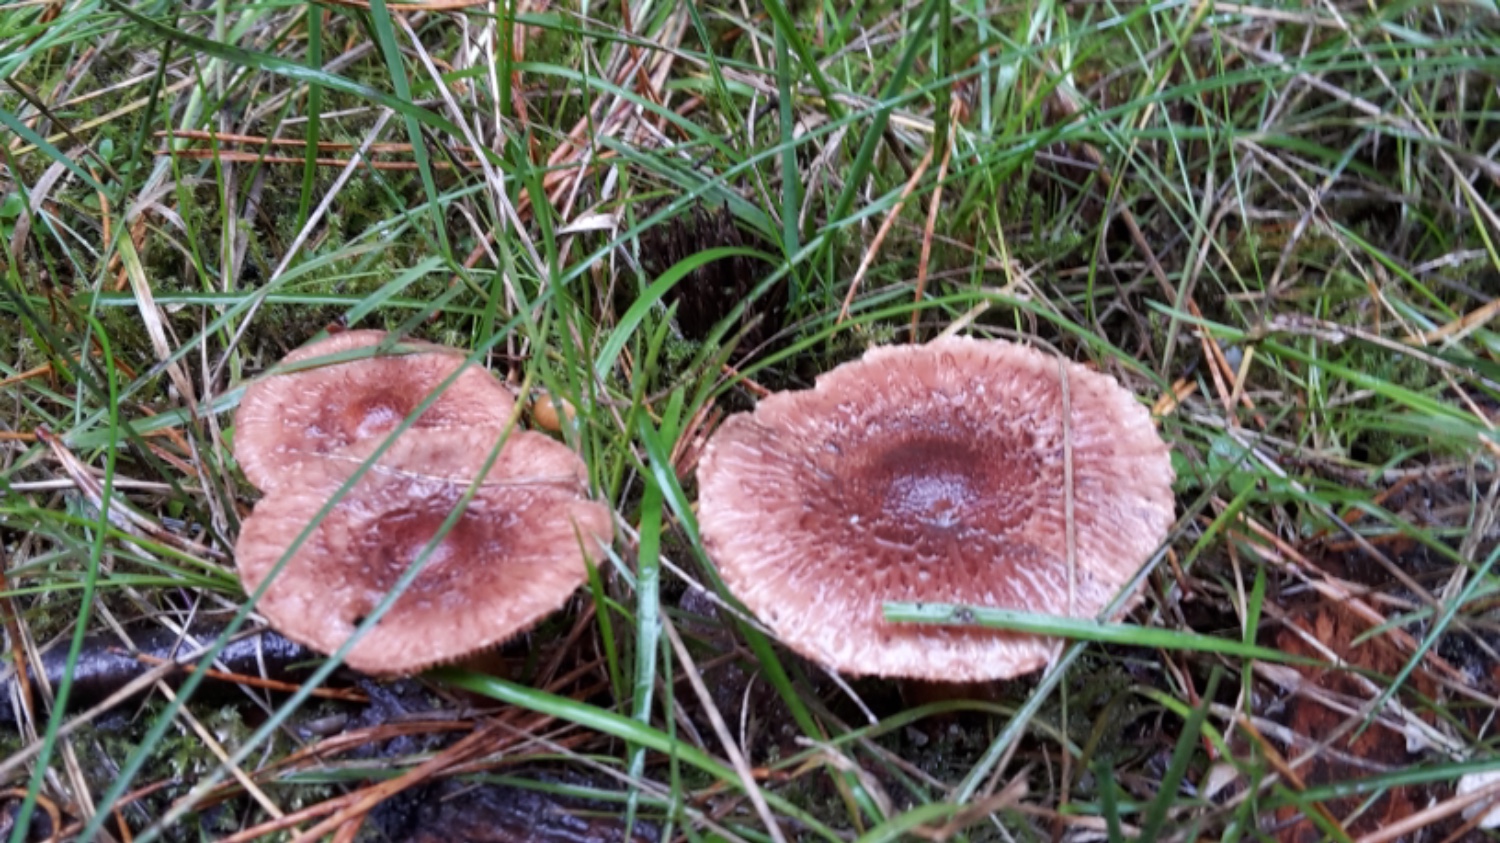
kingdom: Fungi
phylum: Basidiomycota
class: Agaricomycetes
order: Agaricales
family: Tricholomataceae
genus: Tricholoma
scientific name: Tricholoma vaccinum
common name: ko-ridderhat
